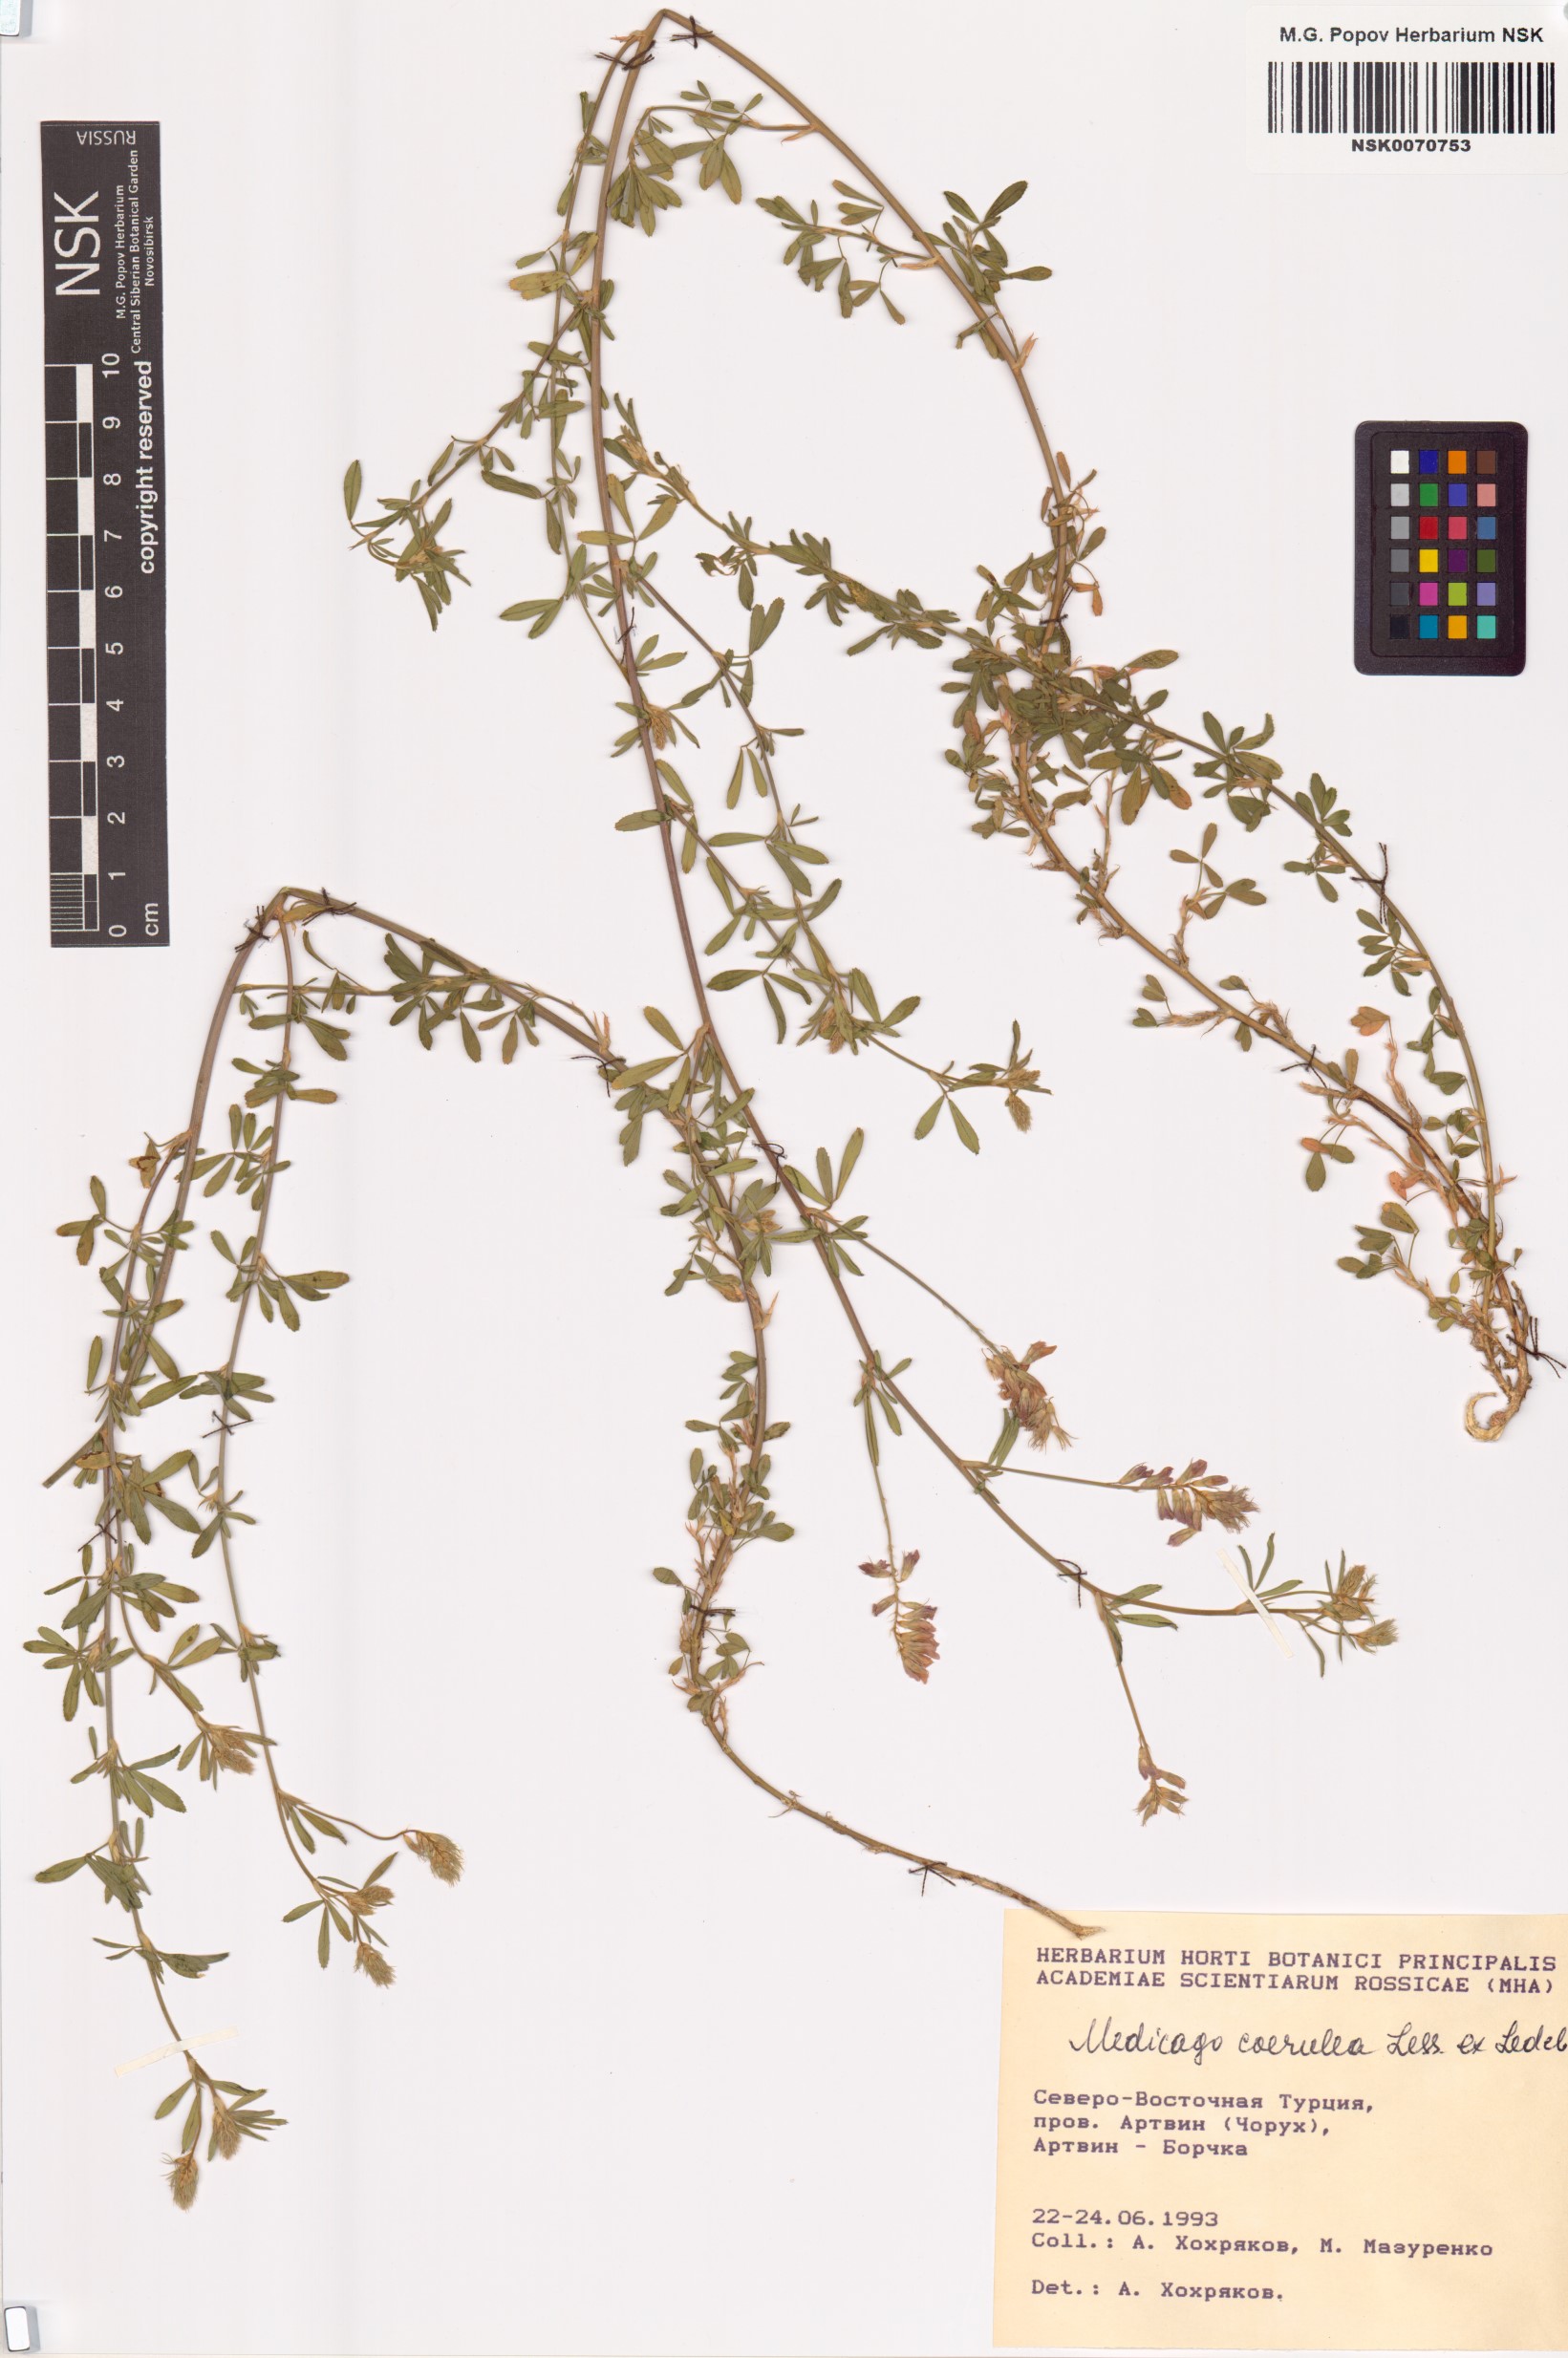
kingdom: Plantae
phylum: Tracheophyta
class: Magnoliopsida
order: Fabales
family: Fabaceae
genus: Medicago
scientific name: Medicago sativa
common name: Alfalfa
